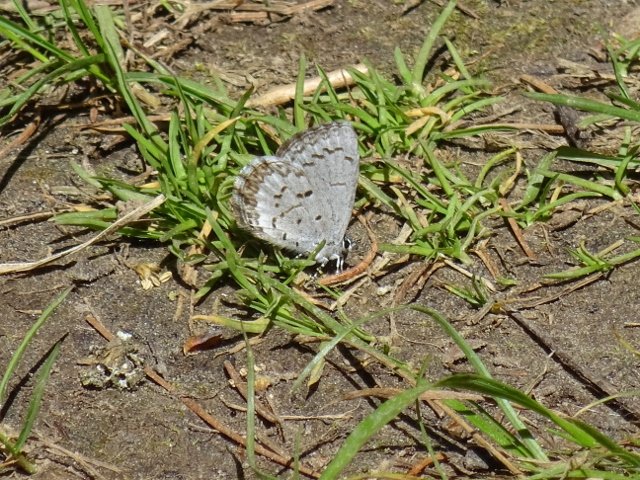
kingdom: Animalia
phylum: Arthropoda
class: Insecta
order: Lepidoptera
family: Lycaenidae
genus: Celastrina
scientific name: Celastrina
